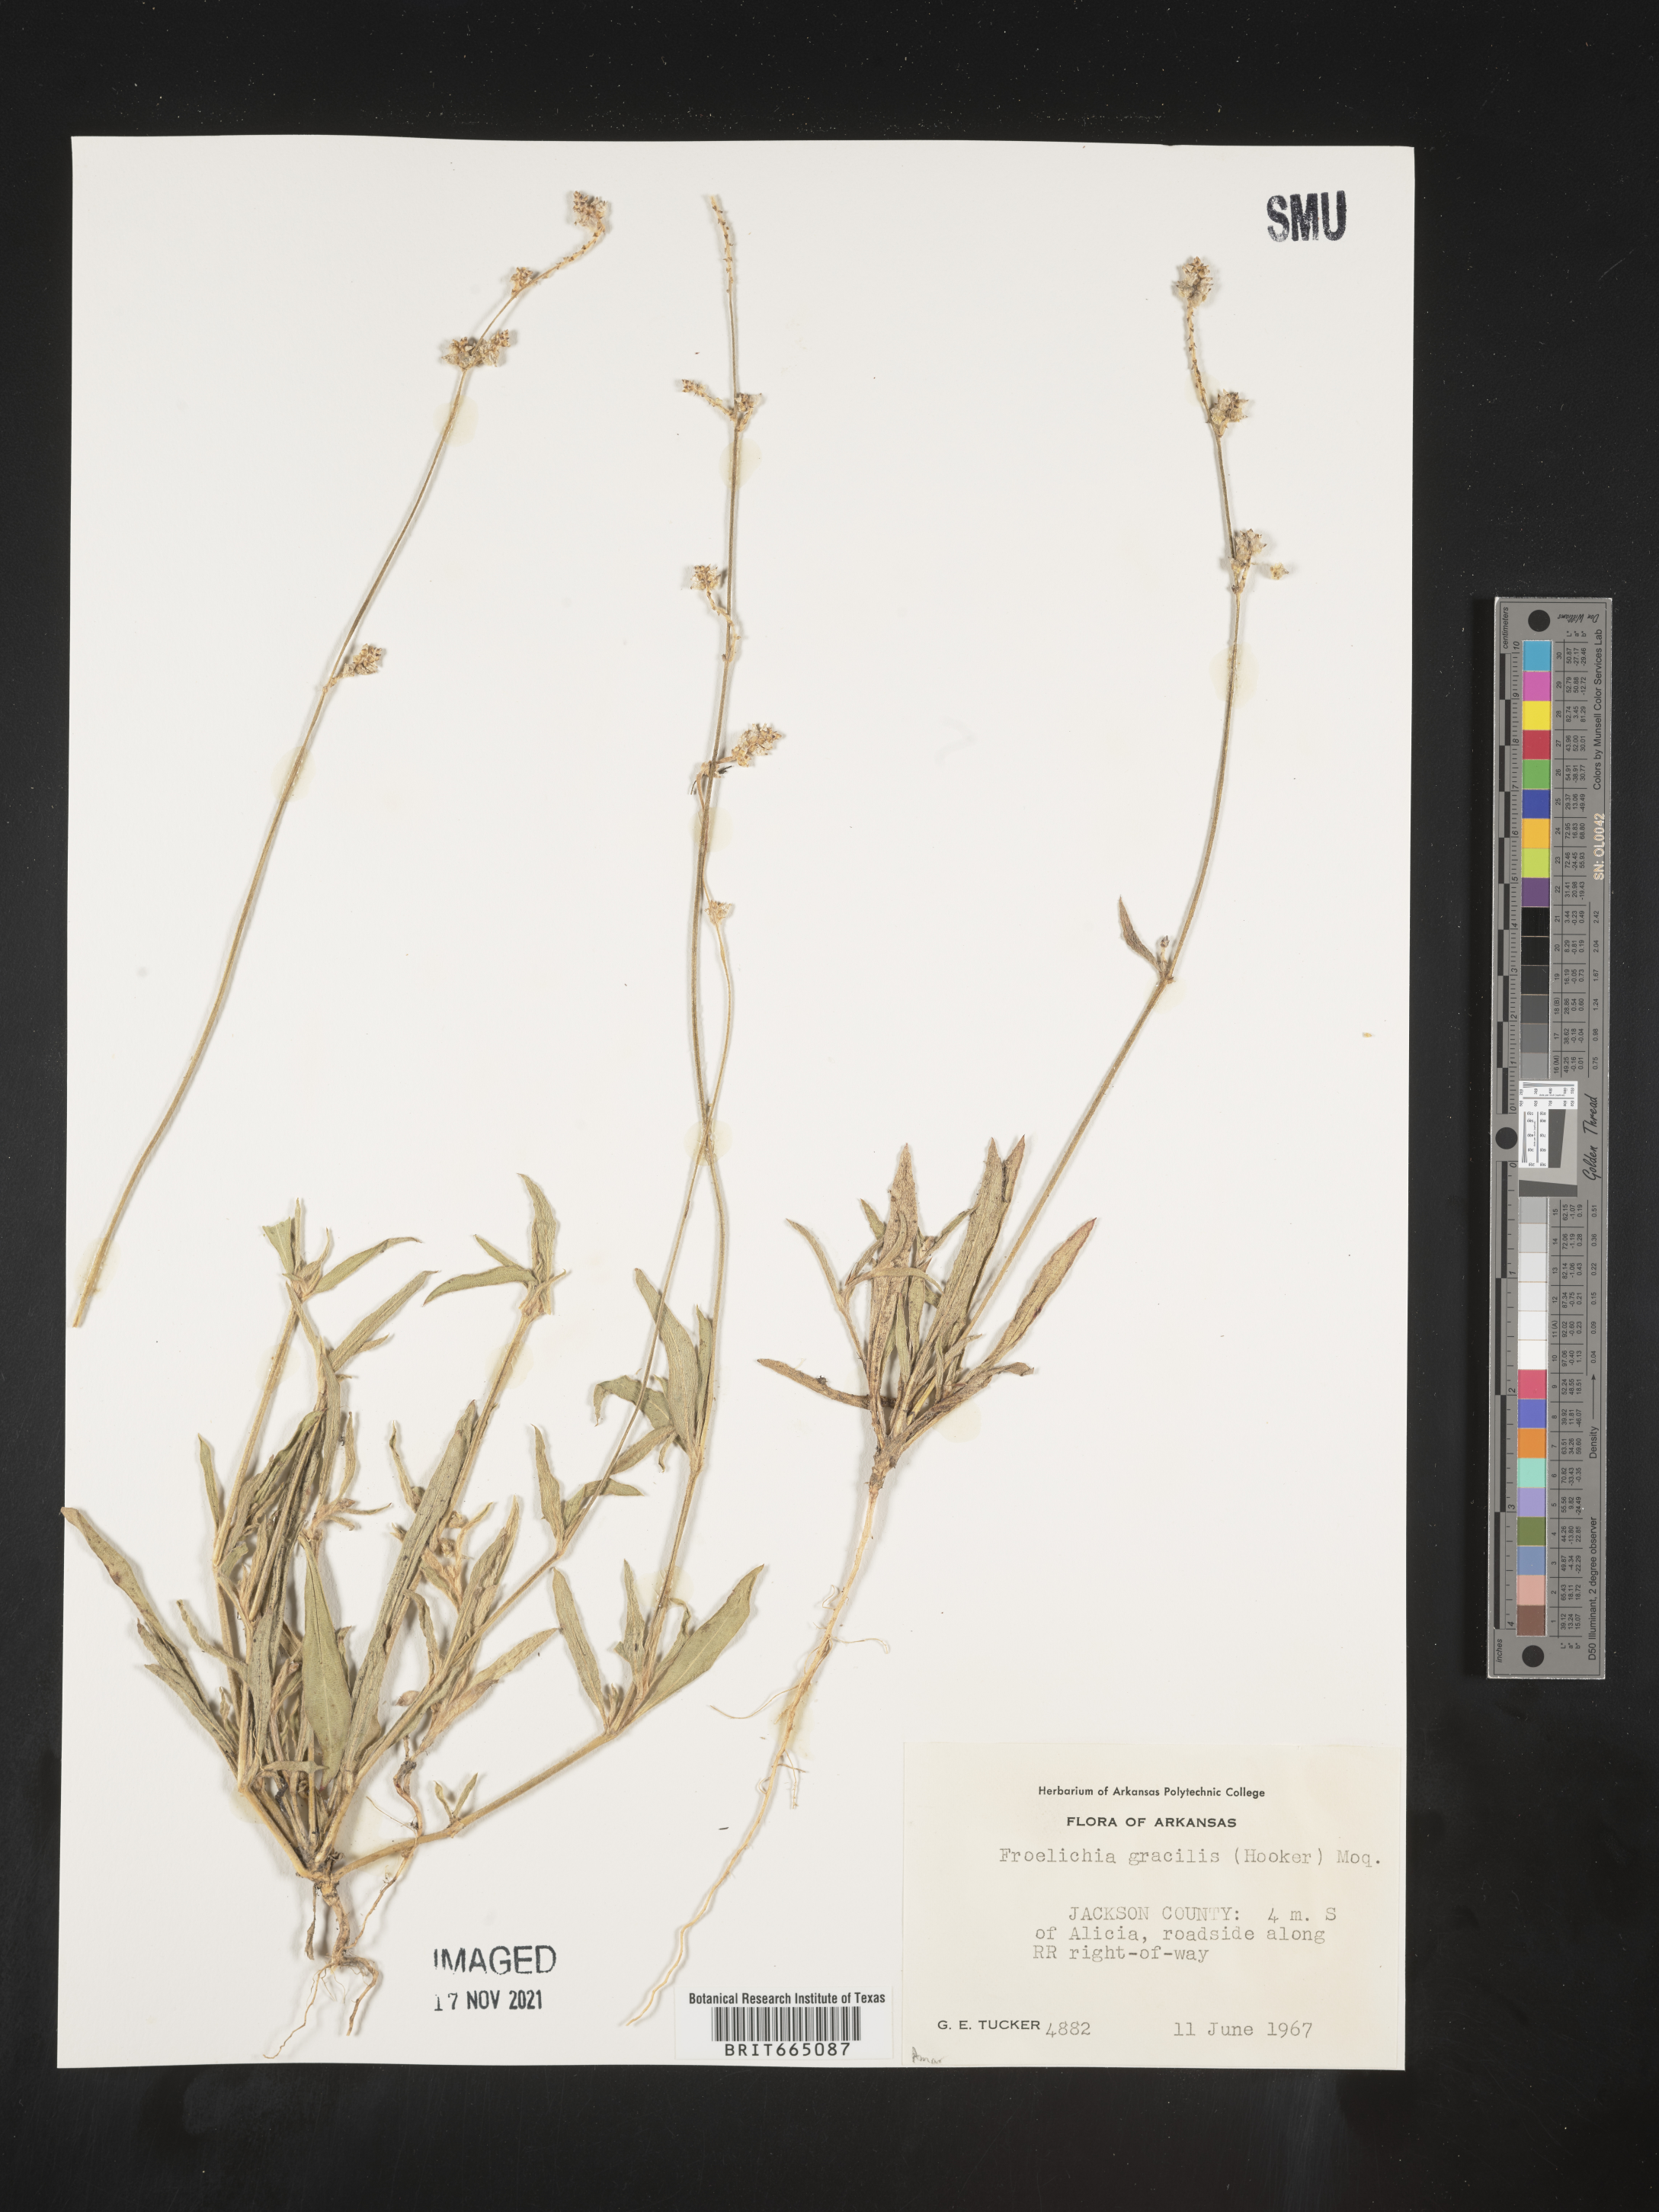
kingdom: Plantae
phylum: Tracheophyta
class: Magnoliopsida
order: Caryophyllales
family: Amaranthaceae
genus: Froelichia
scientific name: Froelichia gracilis
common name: Slender cottonweed
